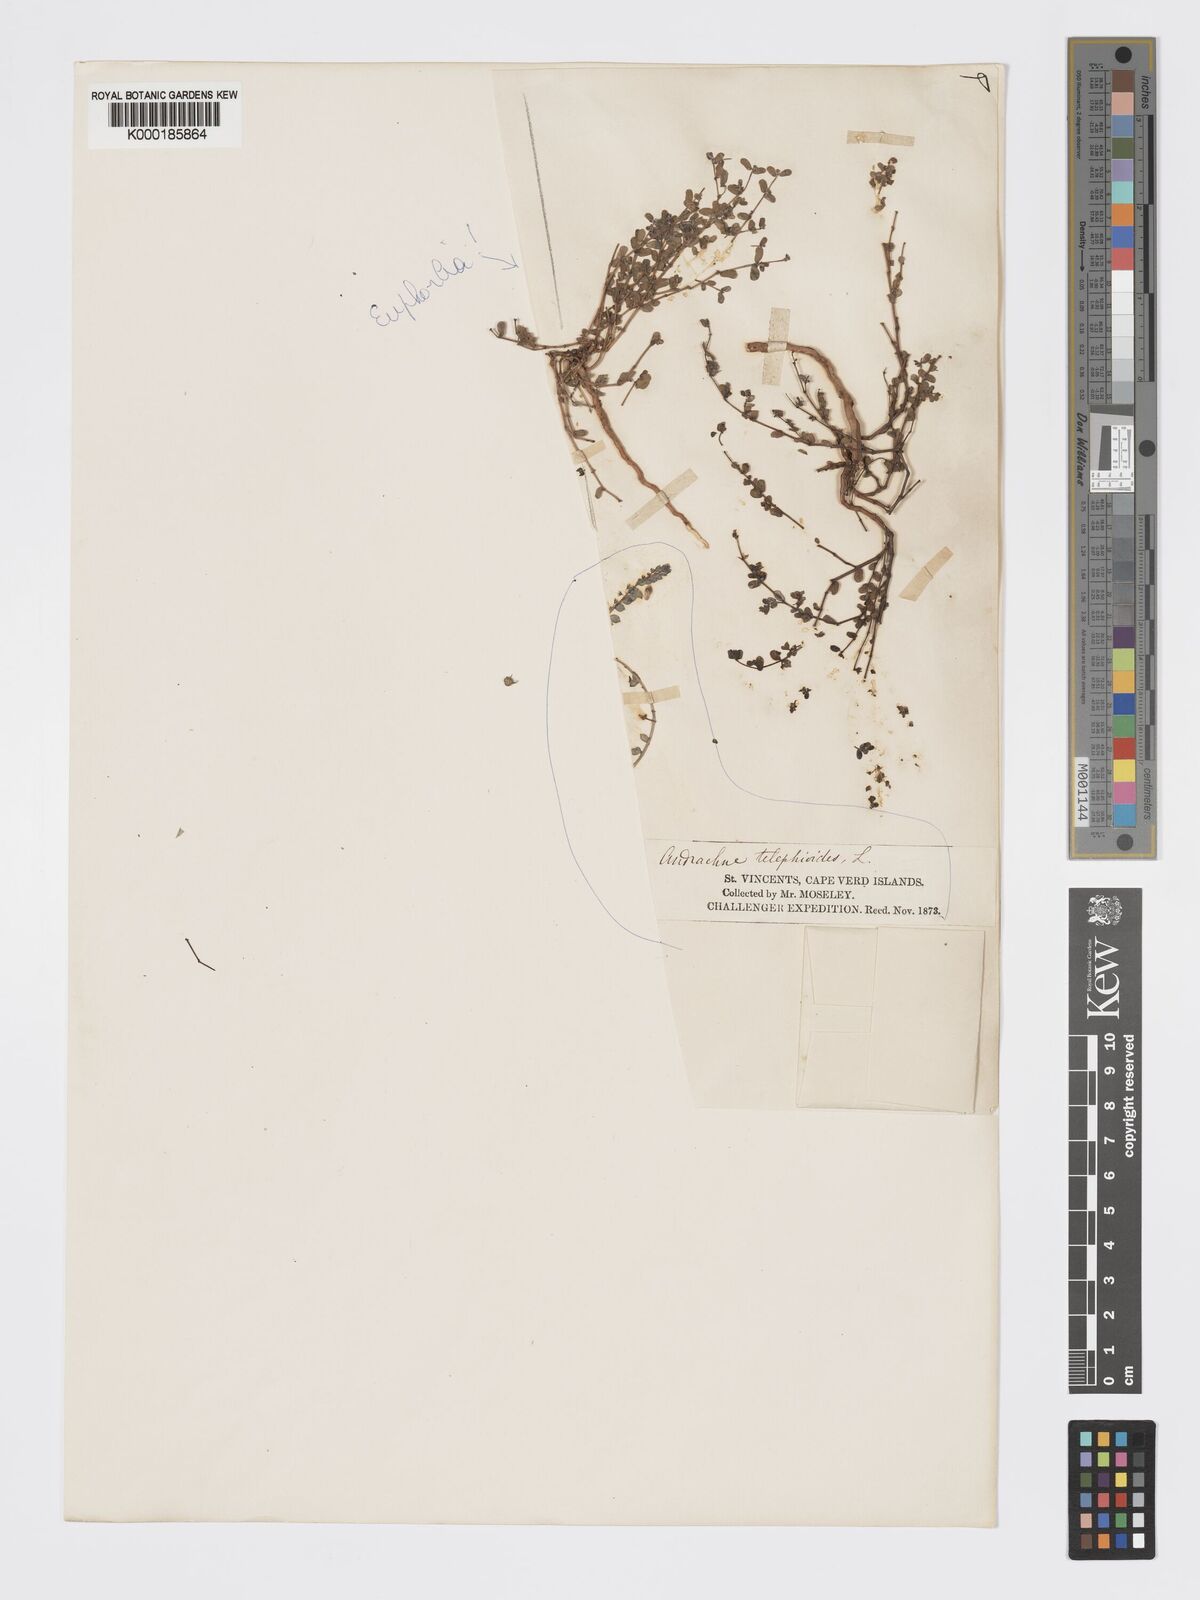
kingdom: Plantae
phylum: Tracheophyta
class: Magnoliopsida
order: Malpighiales
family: Phyllanthaceae
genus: Andrachne
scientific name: Andrachne telephioides
